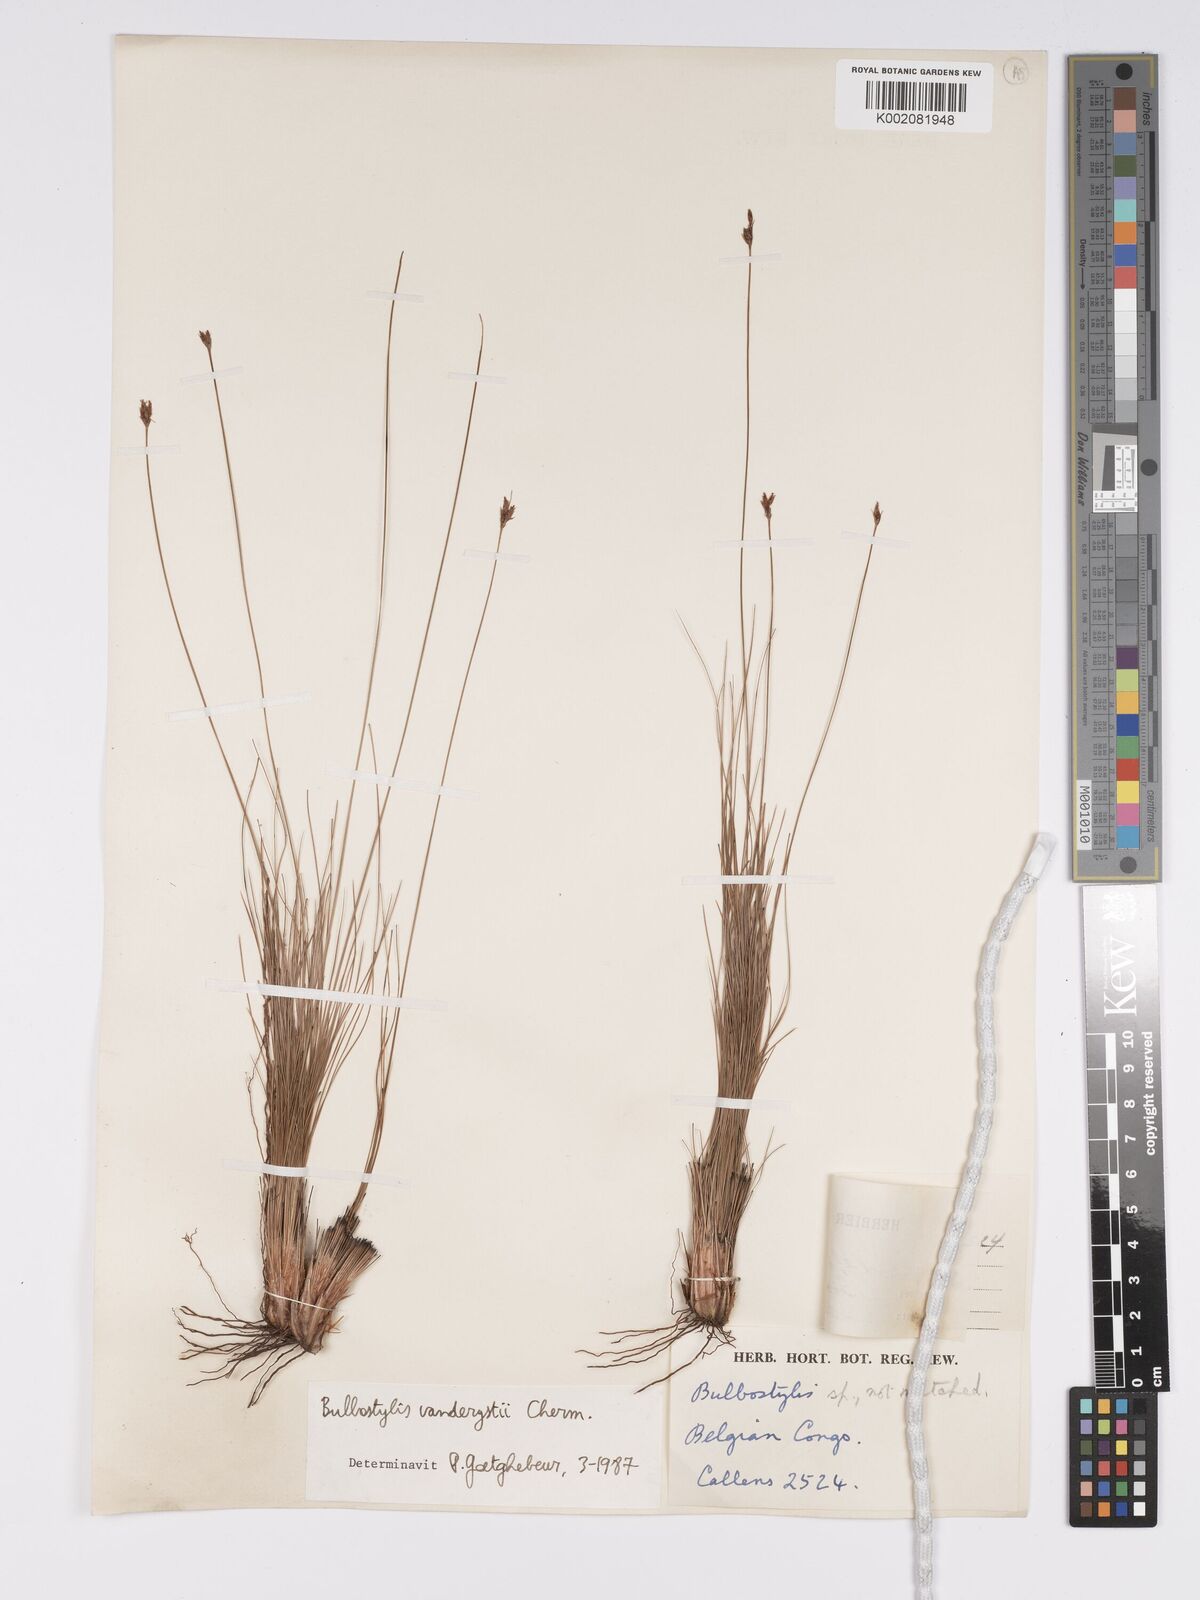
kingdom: Plantae
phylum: Tracheophyta
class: Liliopsida
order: Poales
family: Cyperaceae
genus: Bulbostylis
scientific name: Bulbostylis vanderystii
